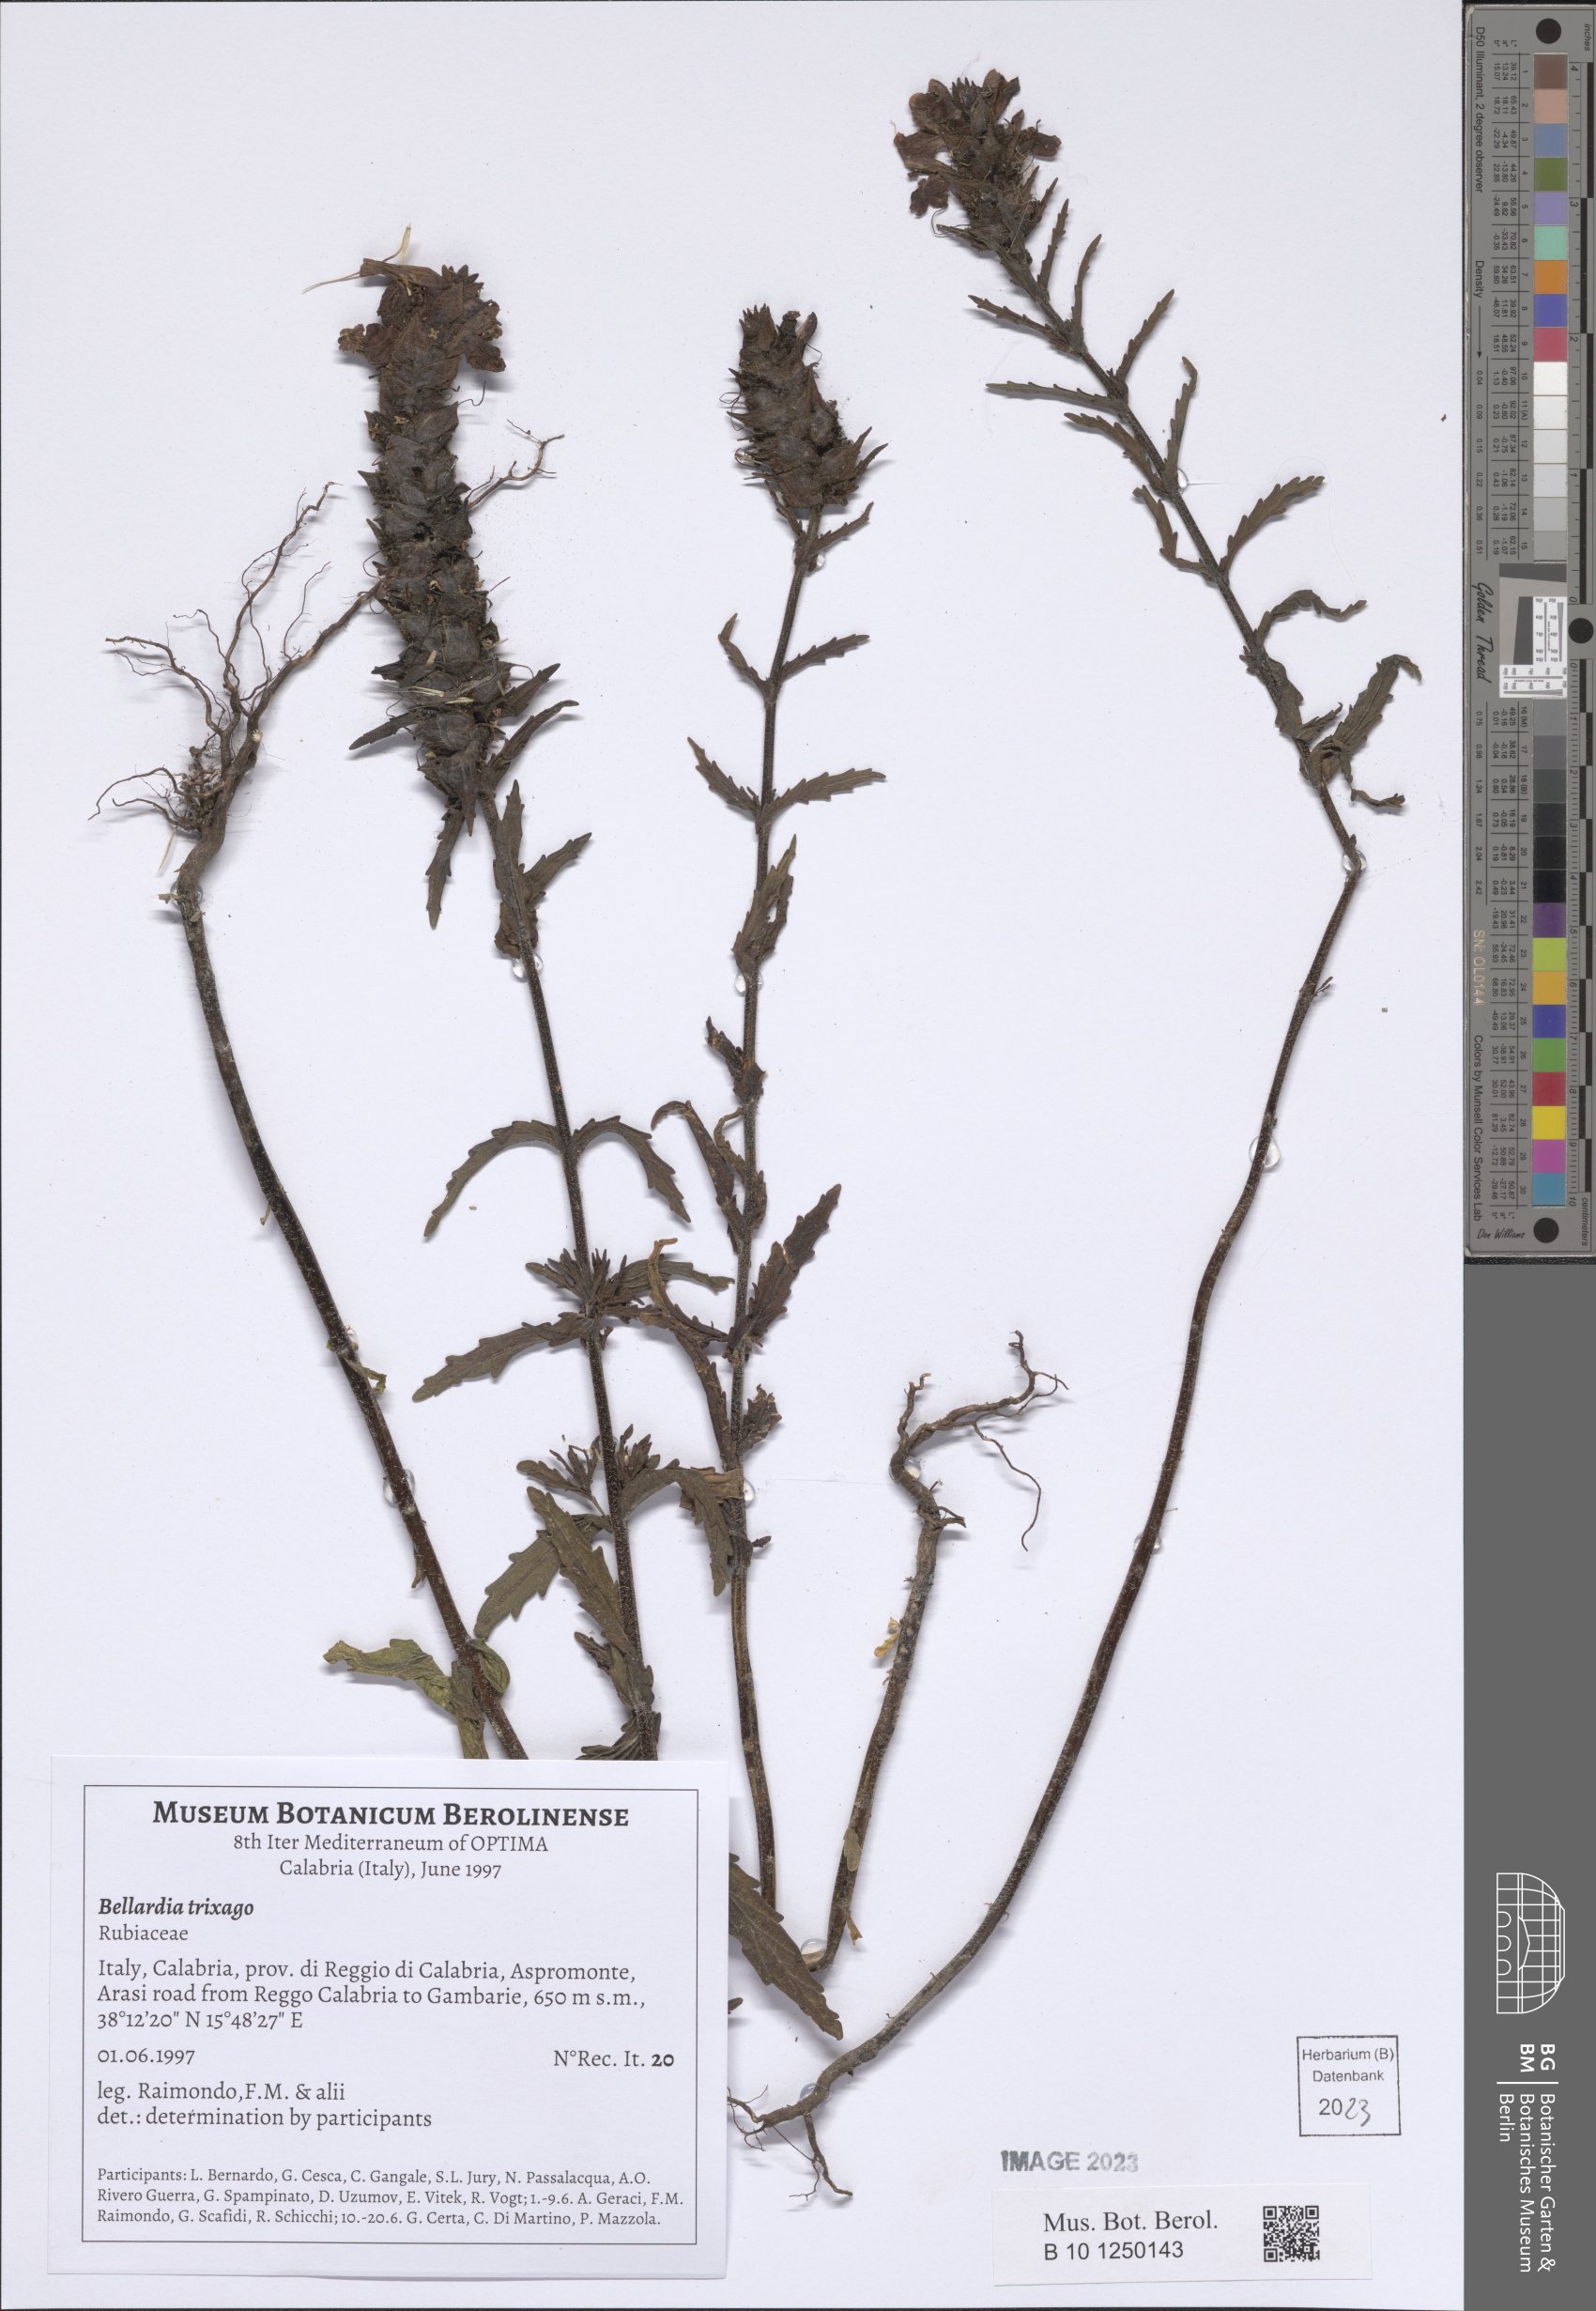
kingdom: Plantae
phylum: Tracheophyta
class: Magnoliopsida
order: Lamiales
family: Orobanchaceae
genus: Bellardia
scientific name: Bellardia trixago
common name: Mediterranean lineseed
